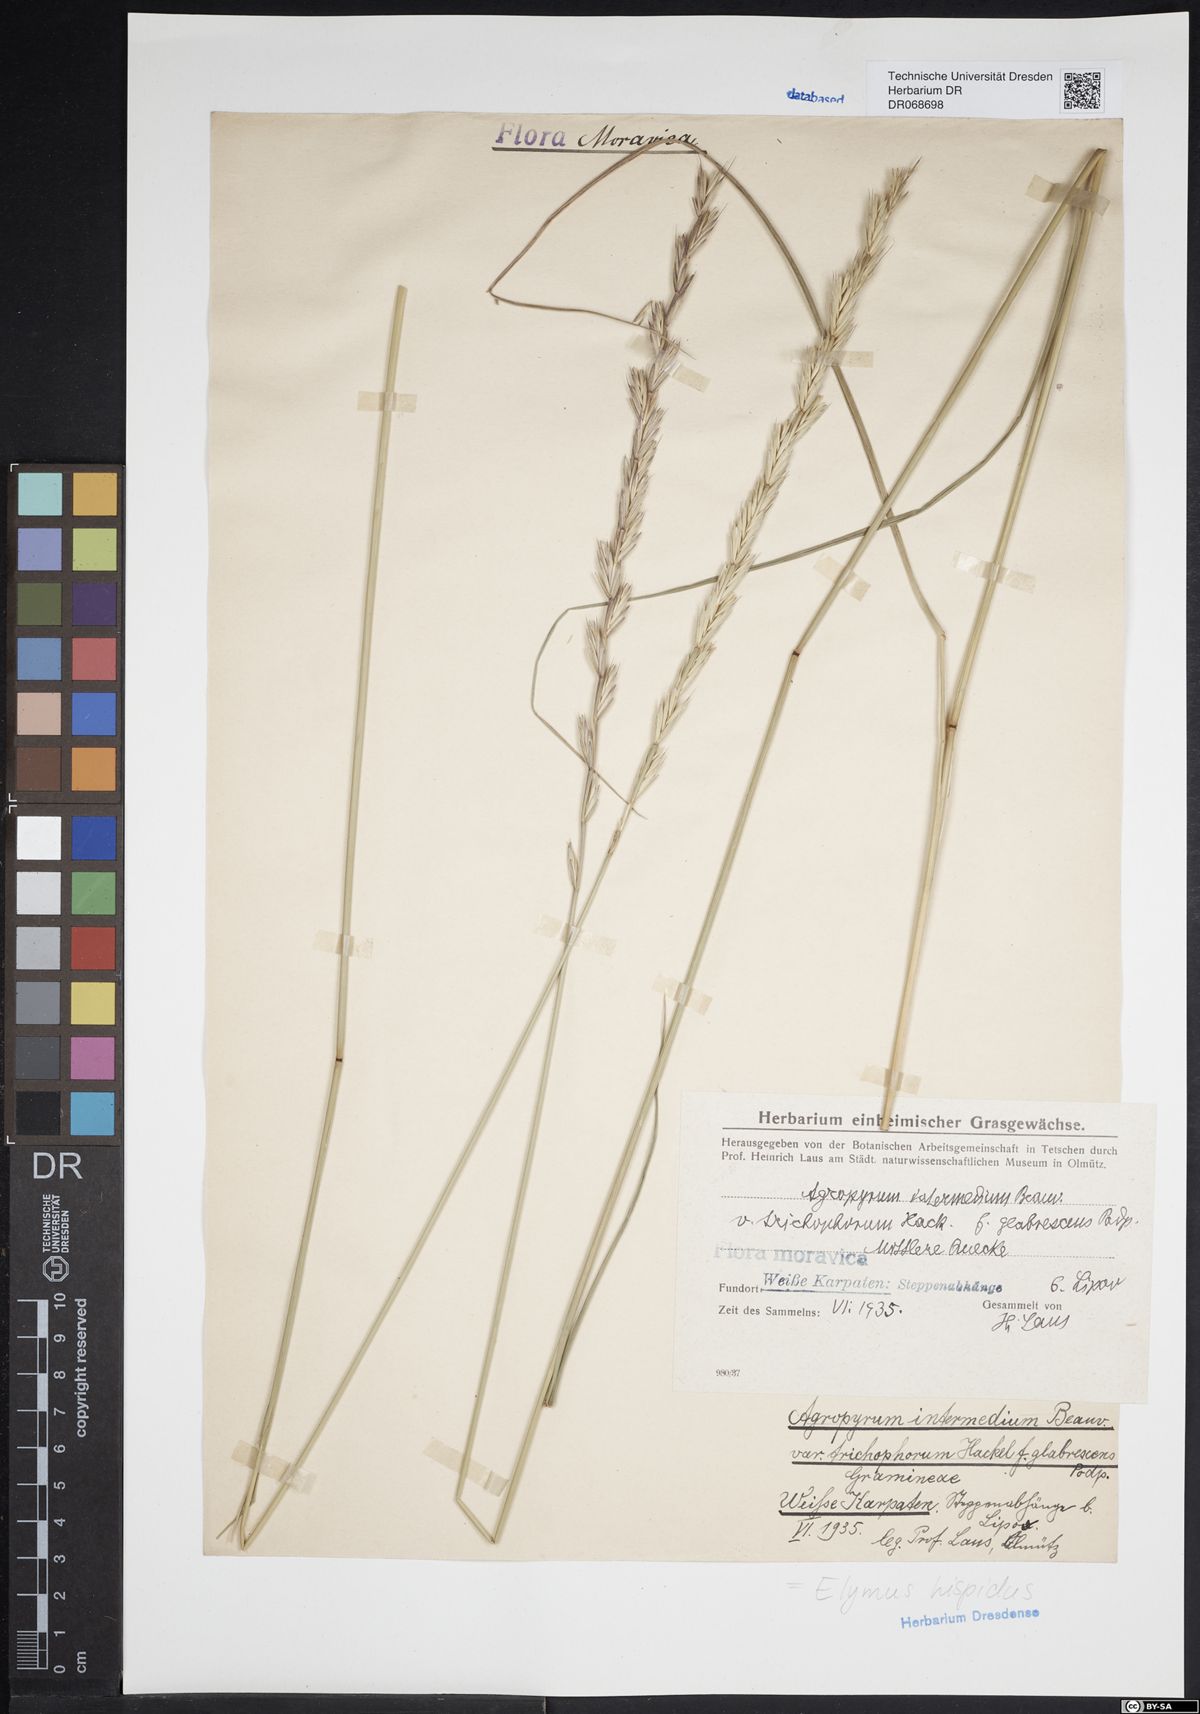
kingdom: Plantae
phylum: Tracheophyta
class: Liliopsida
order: Poales
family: Poaceae
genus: Thinopyrum
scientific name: Thinopyrum intermedium
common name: Intermediate wheatgrass
